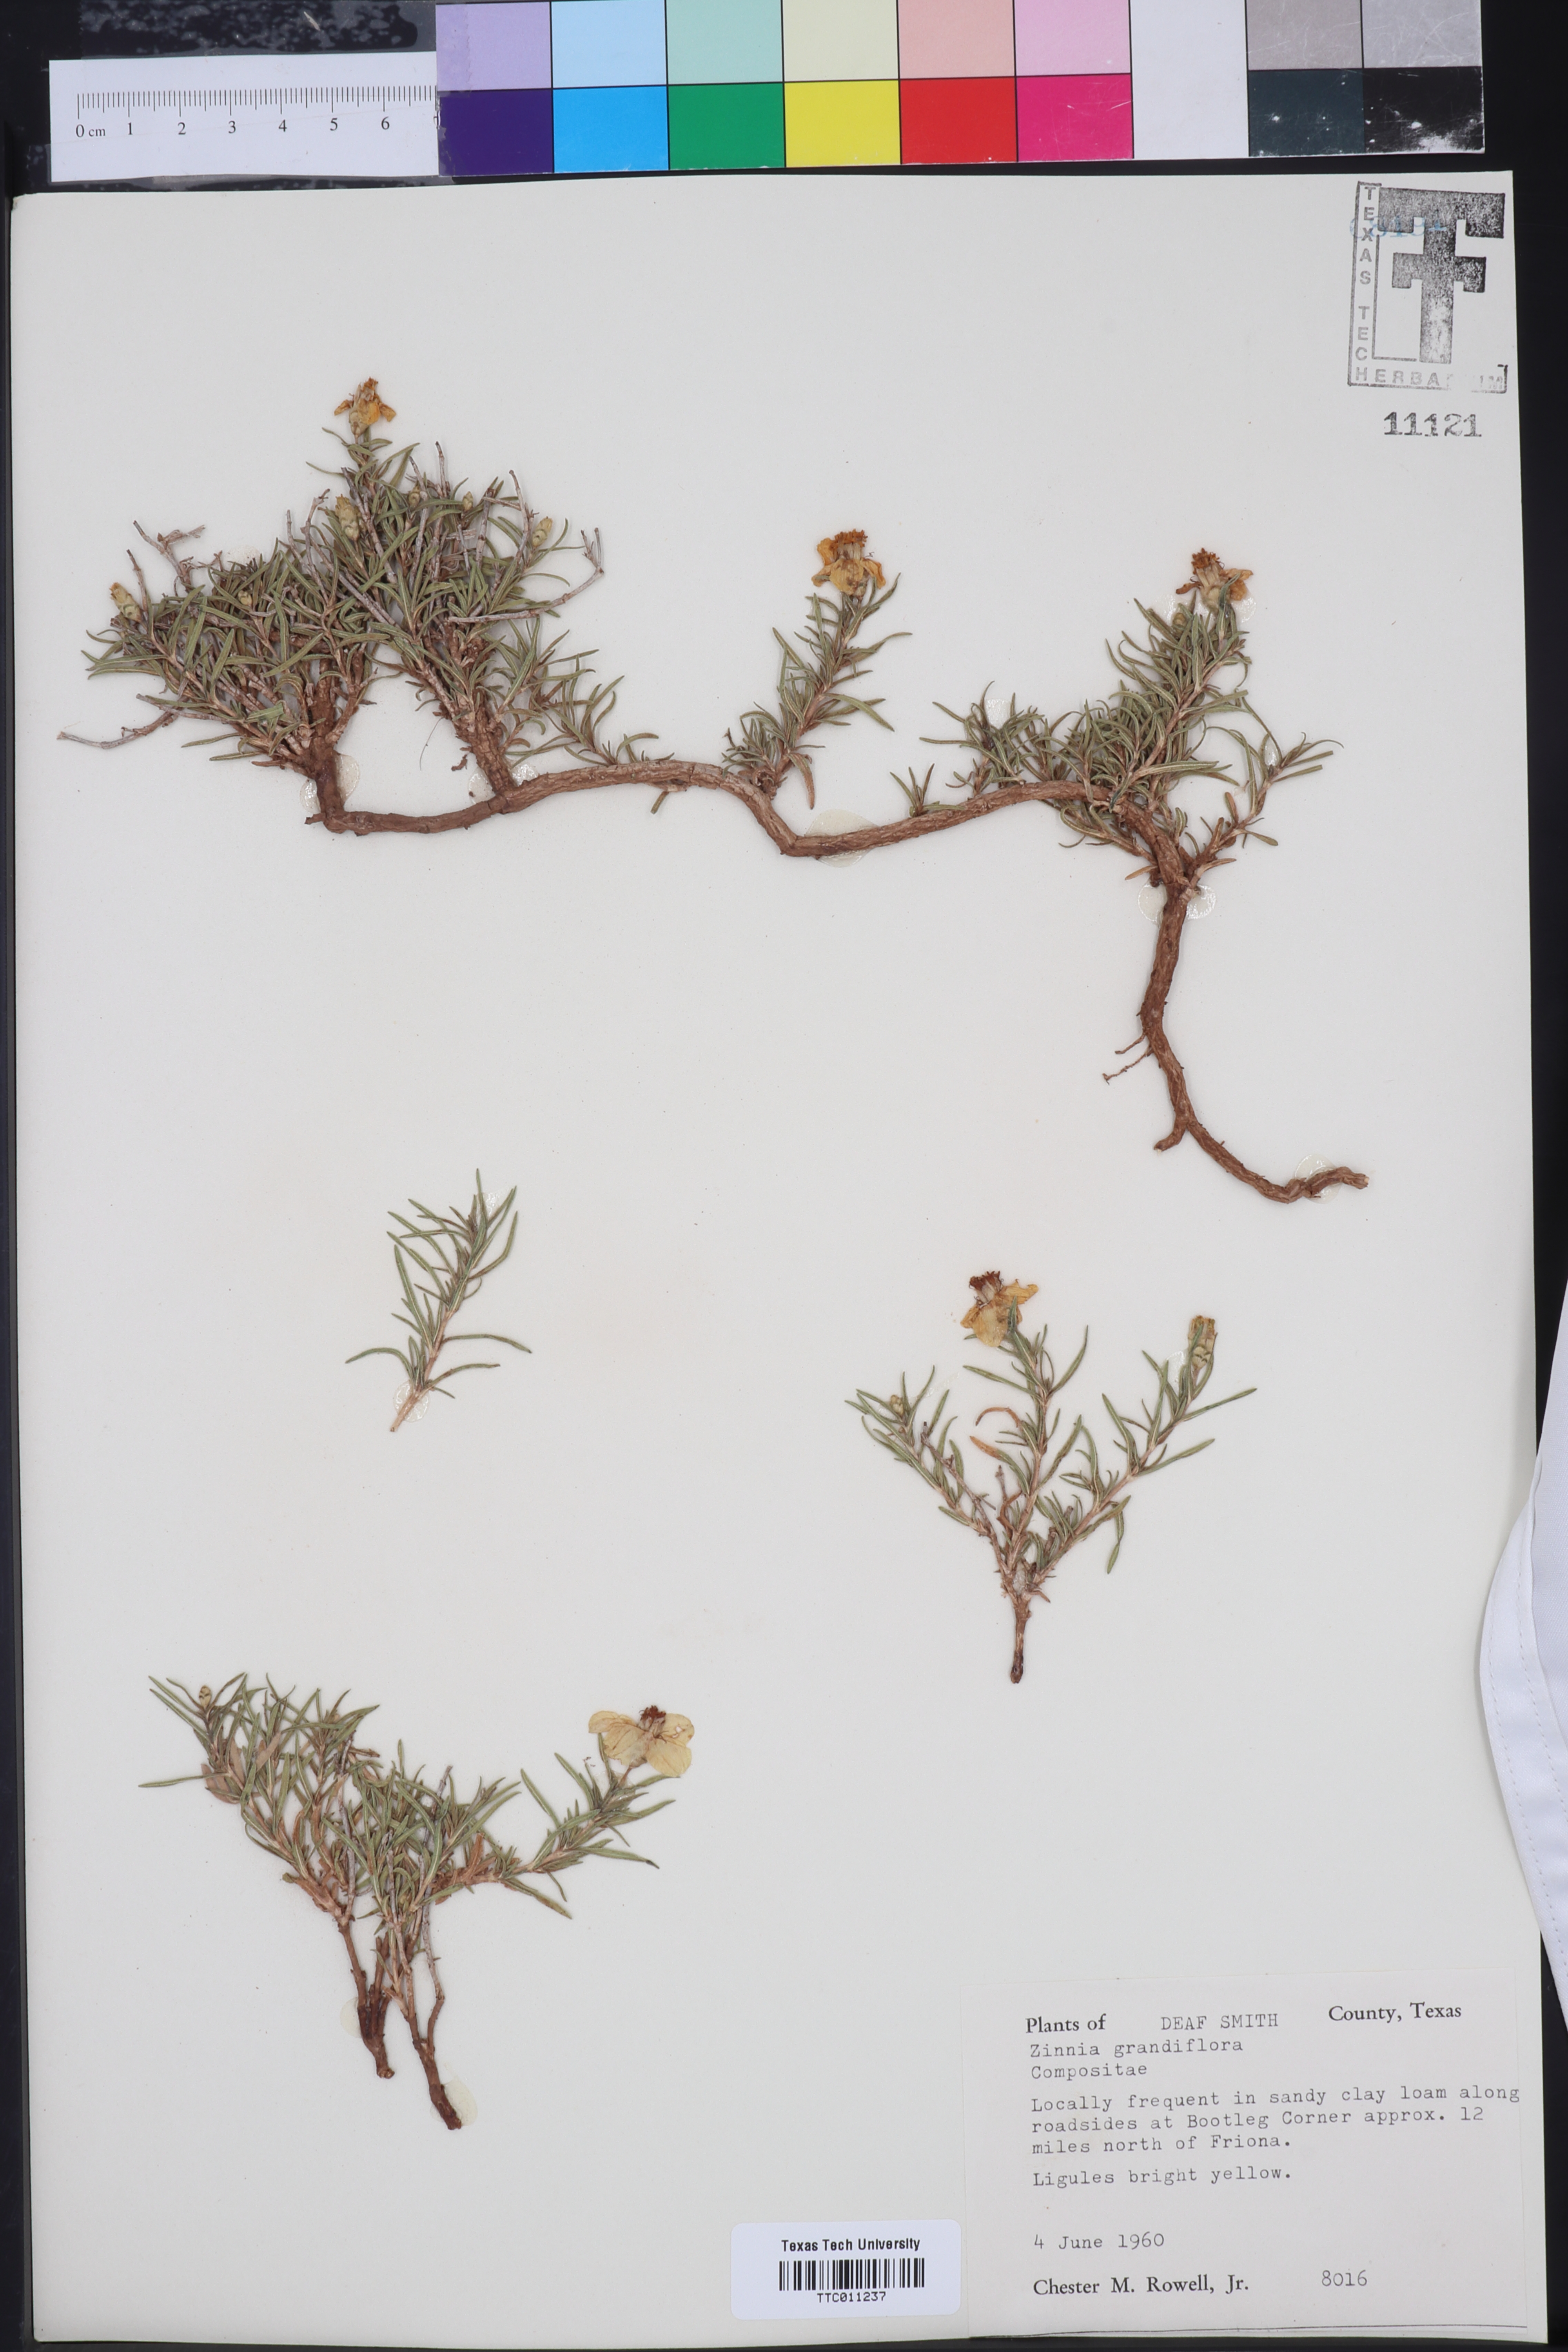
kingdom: Plantae
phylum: Tracheophyta
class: Magnoliopsida
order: Asterales
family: Asteraceae
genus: Zinnia
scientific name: Zinnia grandiflora
